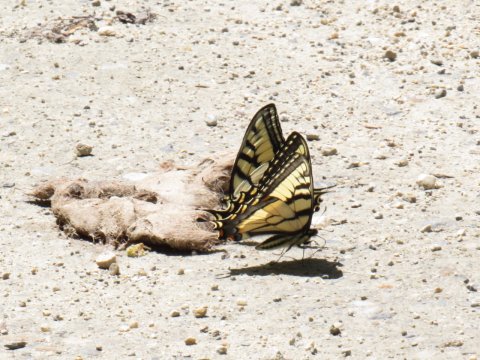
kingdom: Animalia
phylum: Arthropoda
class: Insecta
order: Lepidoptera
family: Papilionidae
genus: Pterourus
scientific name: Pterourus canadensis
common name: Canadian Tiger Swallowtail
